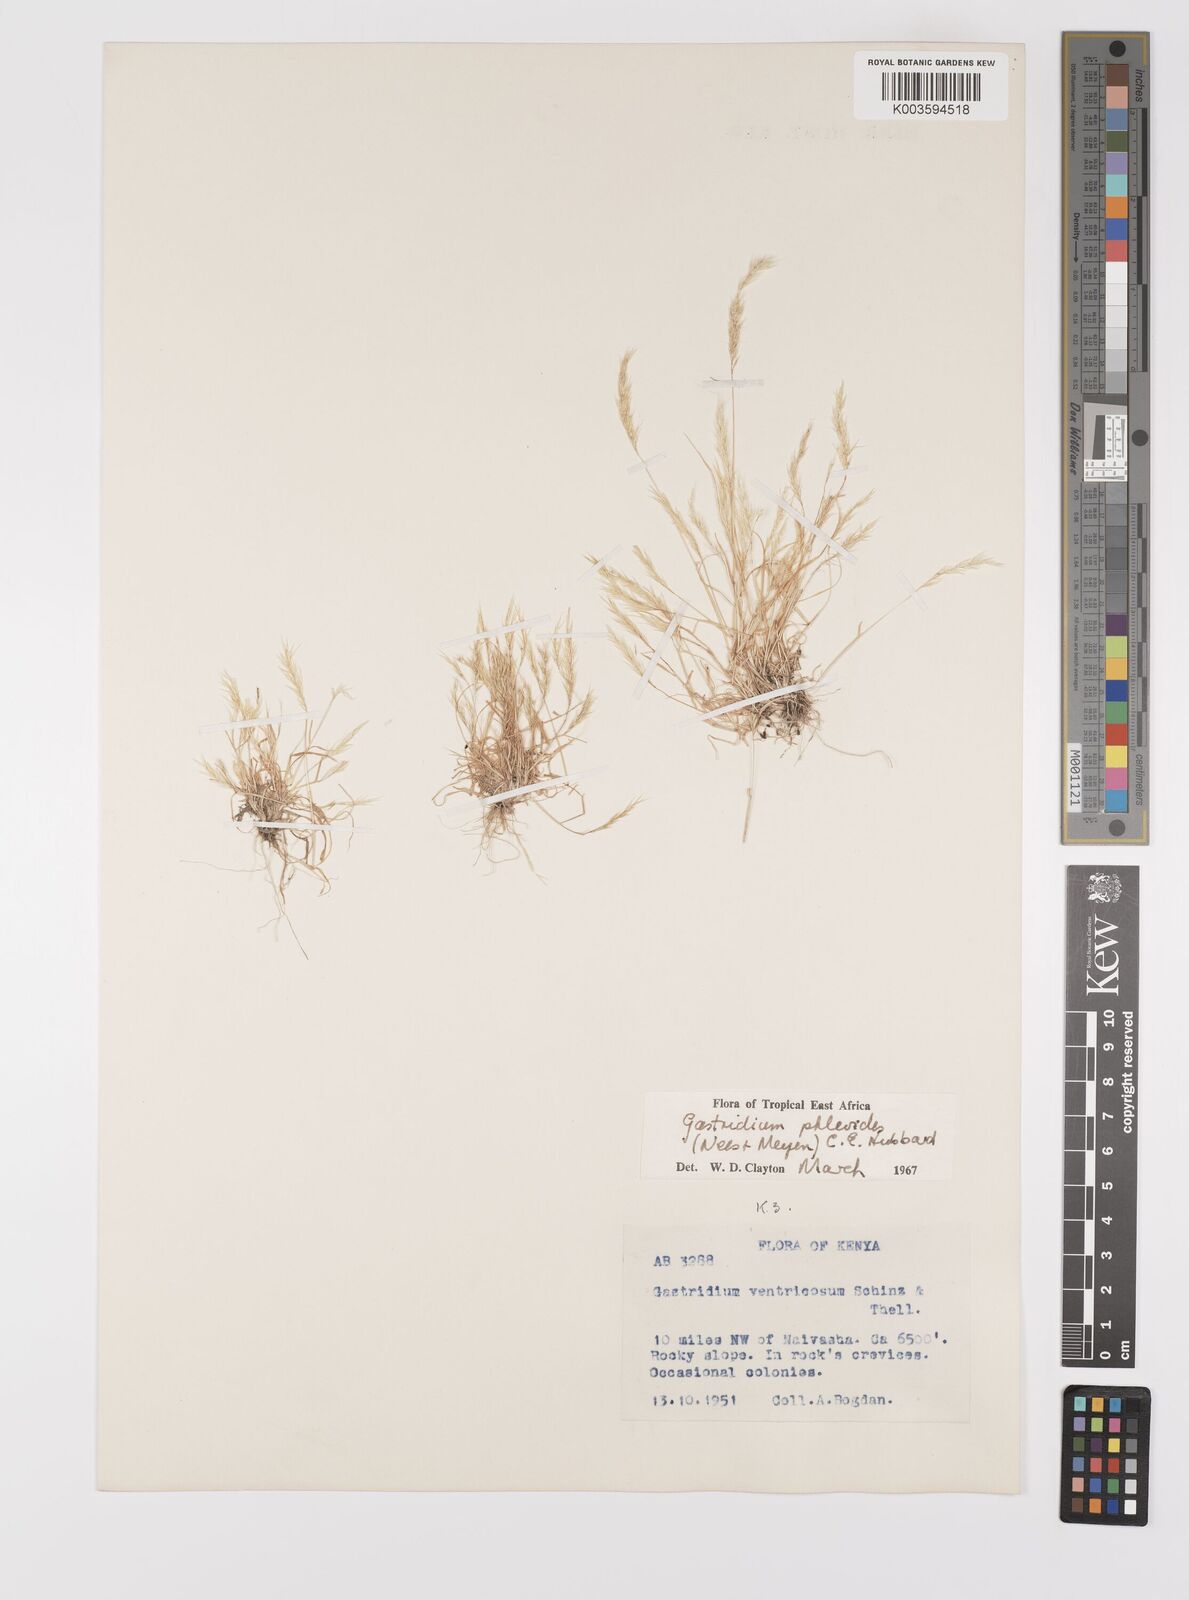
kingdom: Plantae
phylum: Tracheophyta
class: Liliopsida
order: Poales
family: Poaceae
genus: Gastridium
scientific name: Gastridium phleoides
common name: Nit grass
